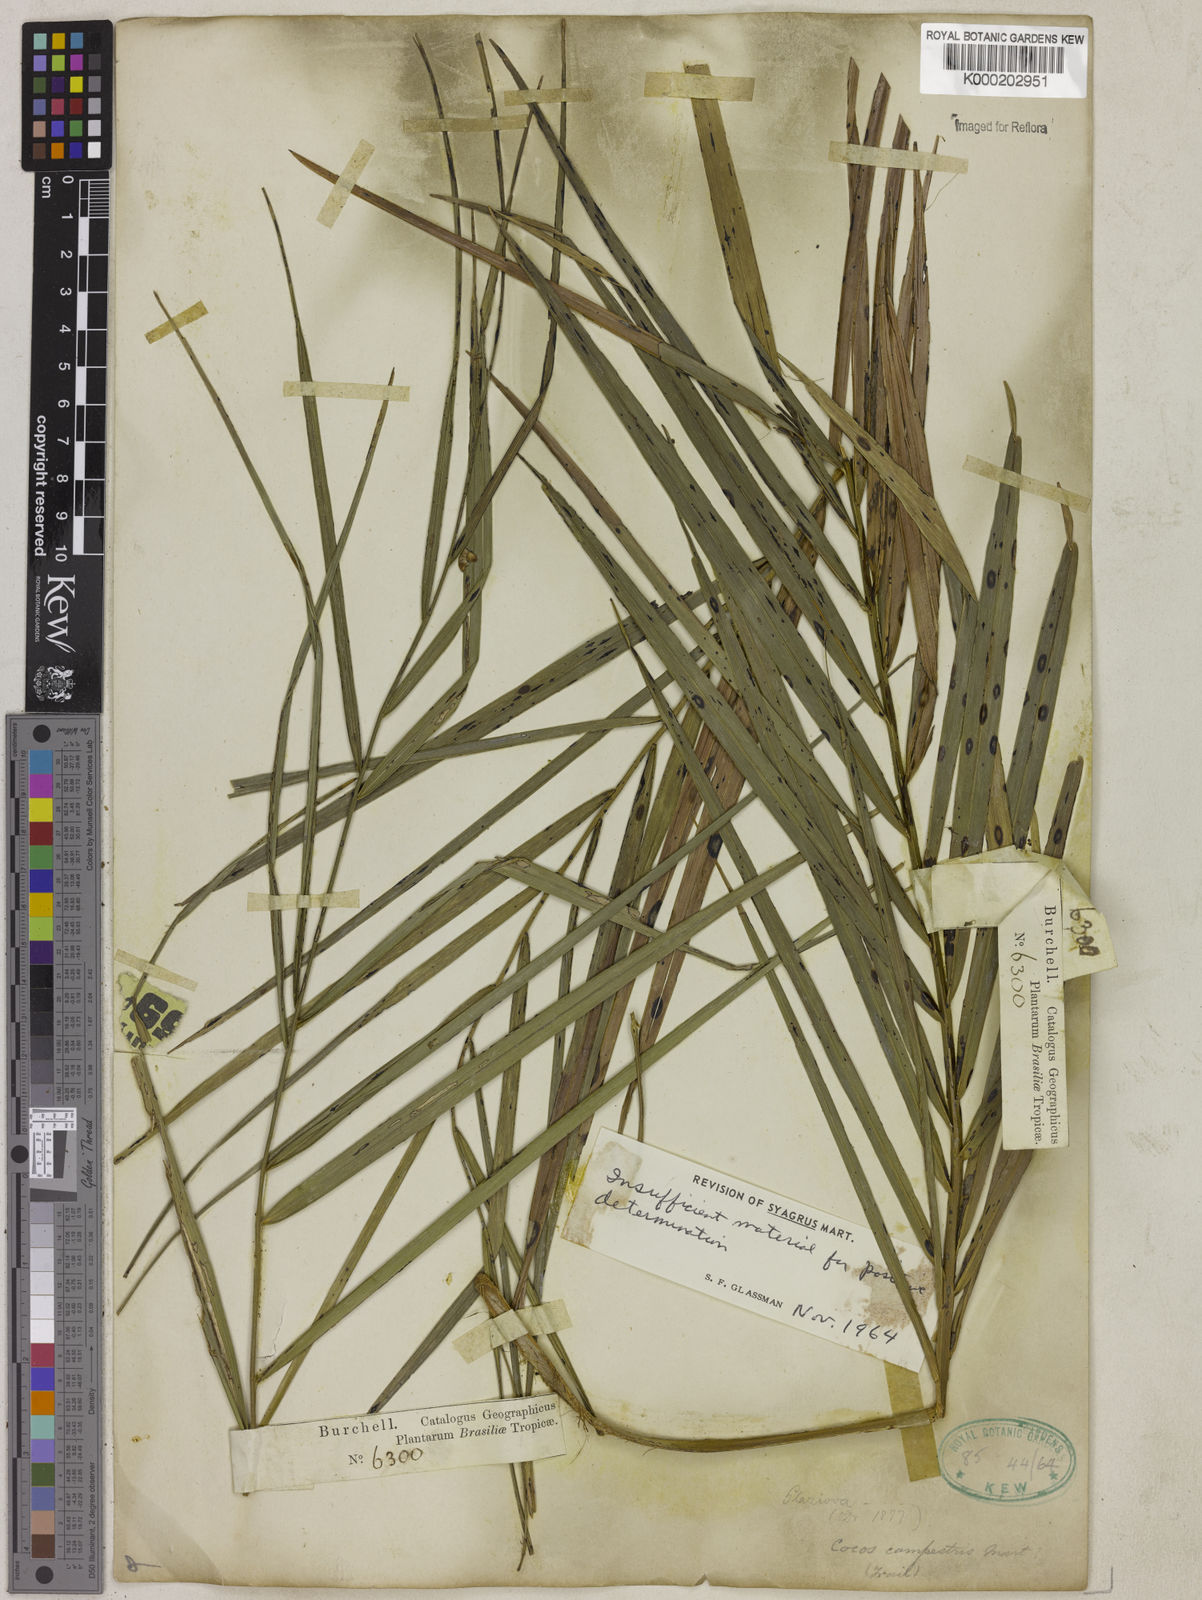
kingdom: Plantae
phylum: Tracheophyta
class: Liliopsida
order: Arecales
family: Arecaceae
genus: Syagrus
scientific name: Syagrus
